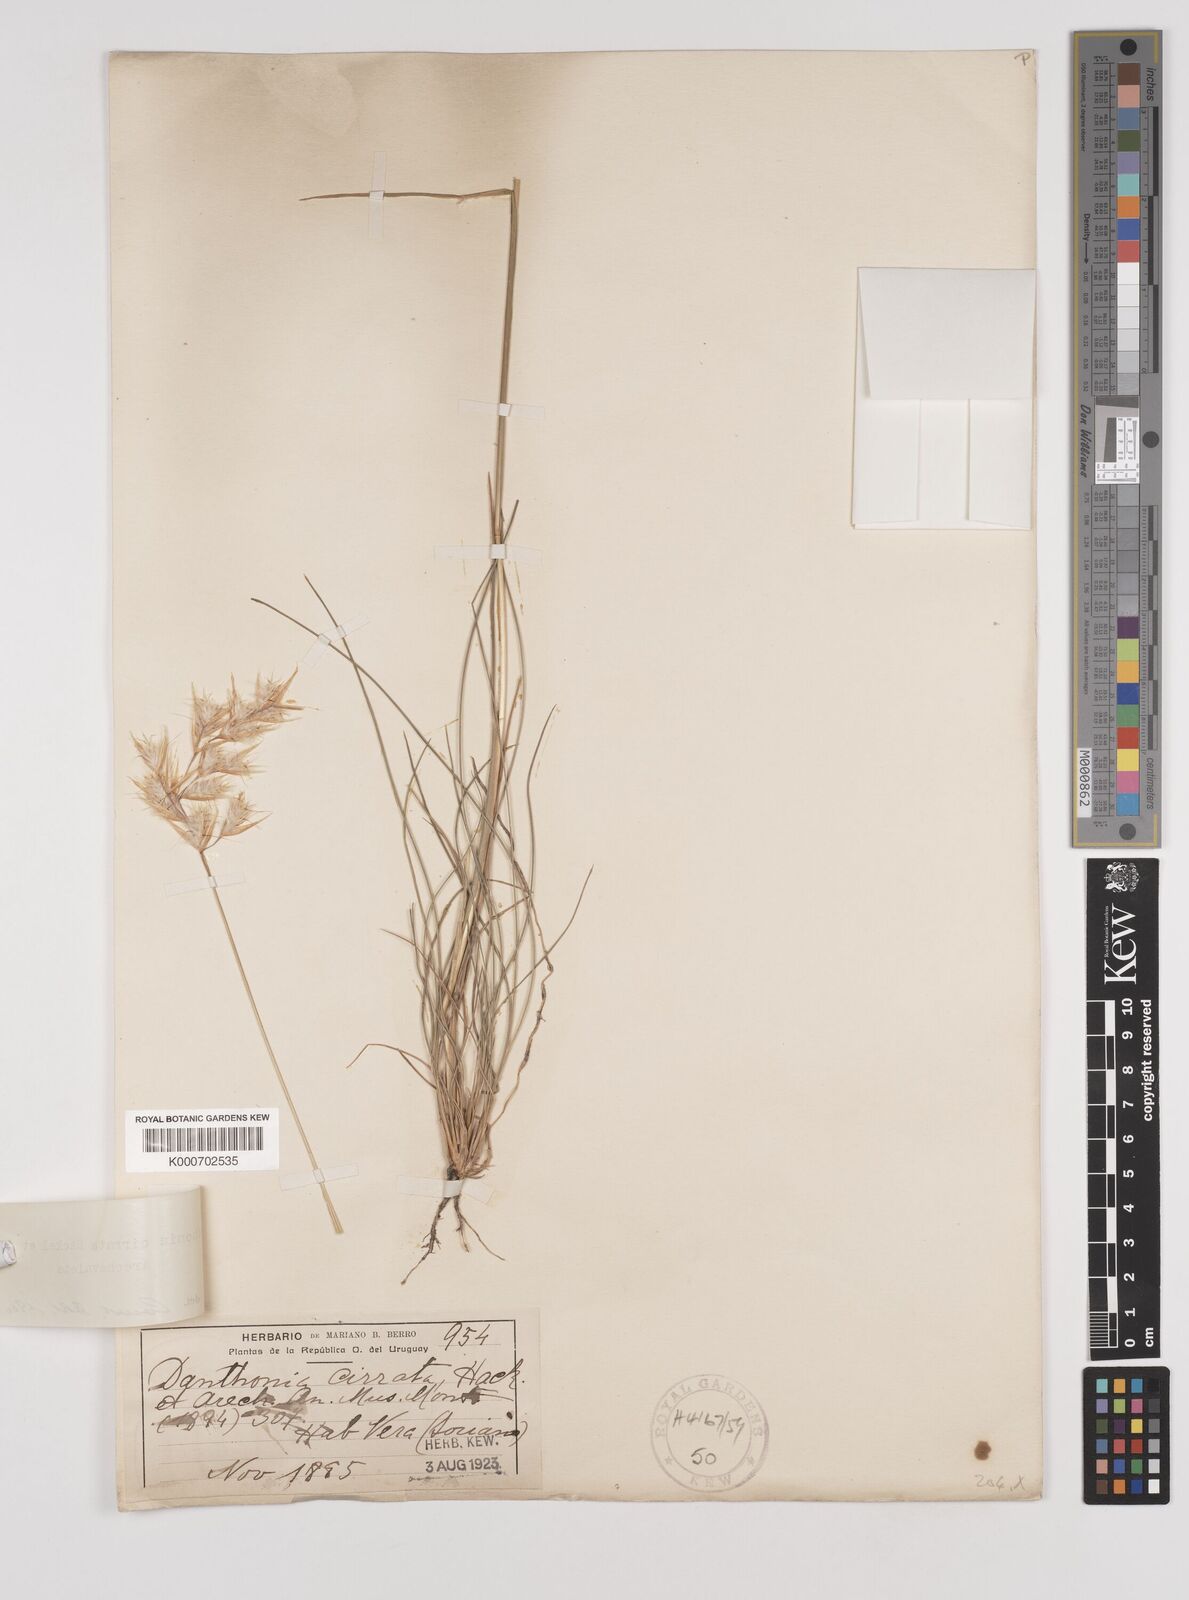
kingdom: Plantae
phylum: Tracheophyta
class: Liliopsida
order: Poales
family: Poaceae
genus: Danthonia
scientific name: Danthonia cirrata
